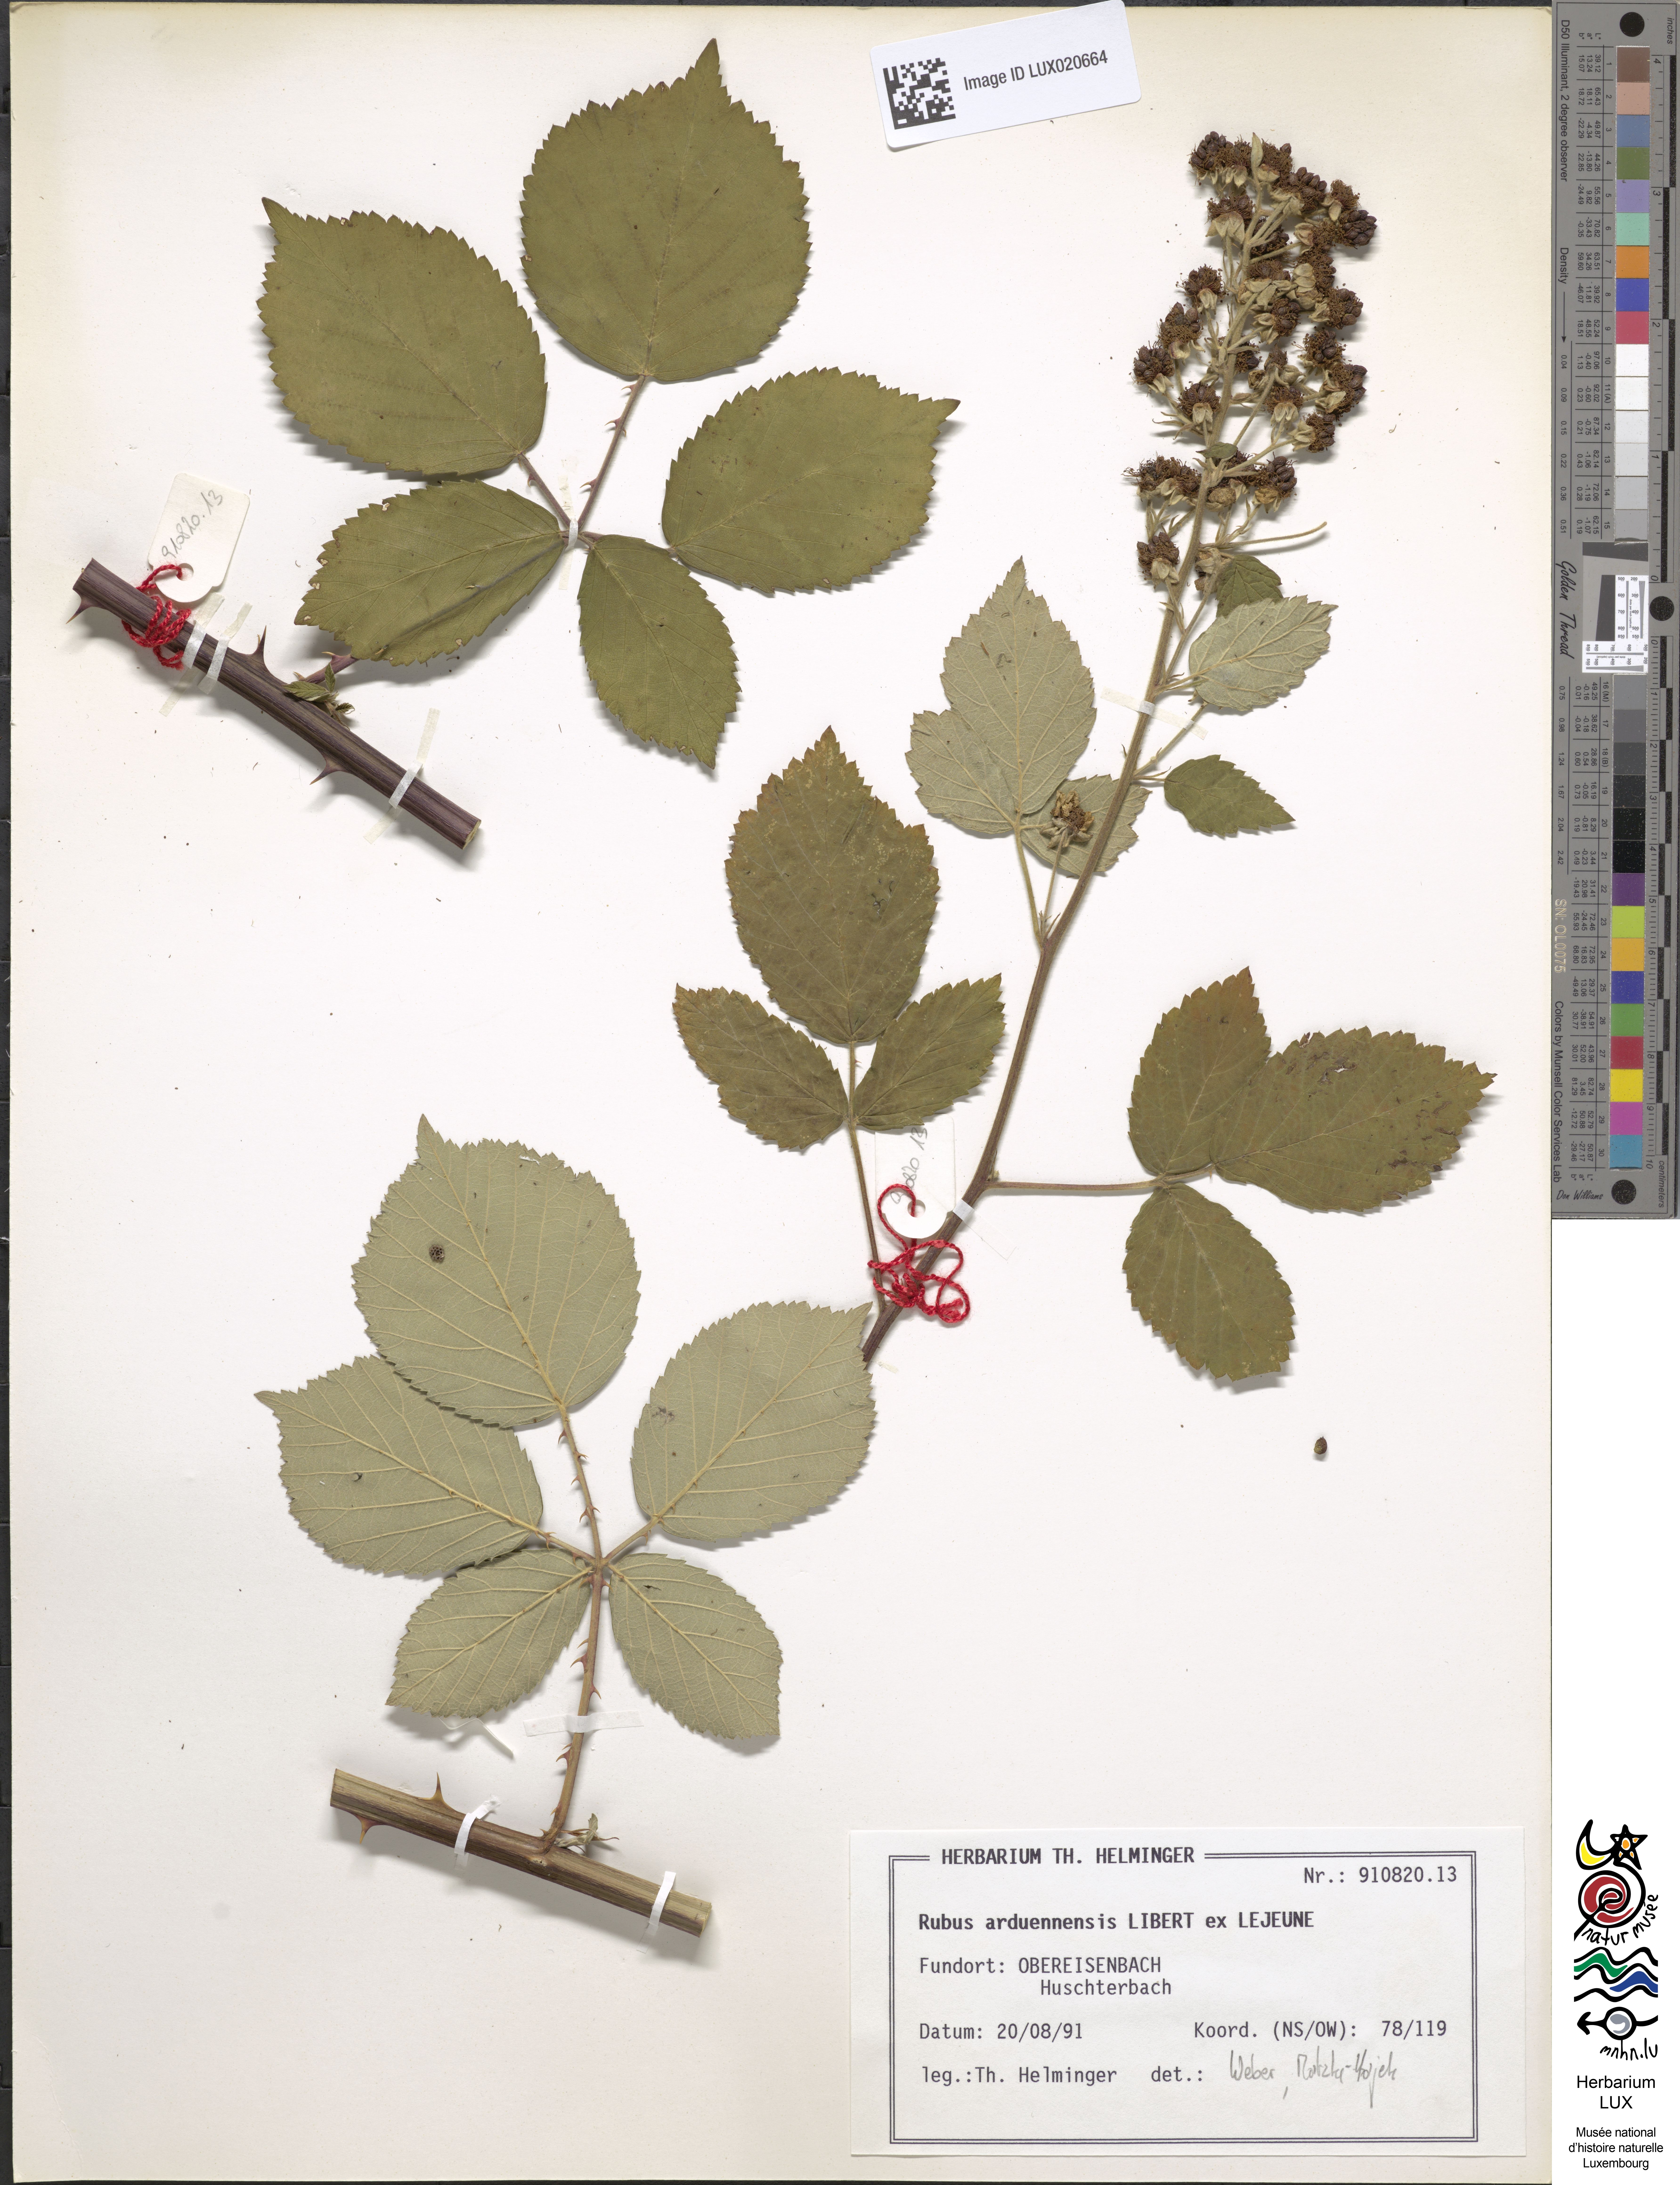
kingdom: Plantae
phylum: Tracheophyta
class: Magnoliopsida
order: Rosales
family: Rosaceae
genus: Rubus
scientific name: Rubus arduennensis
